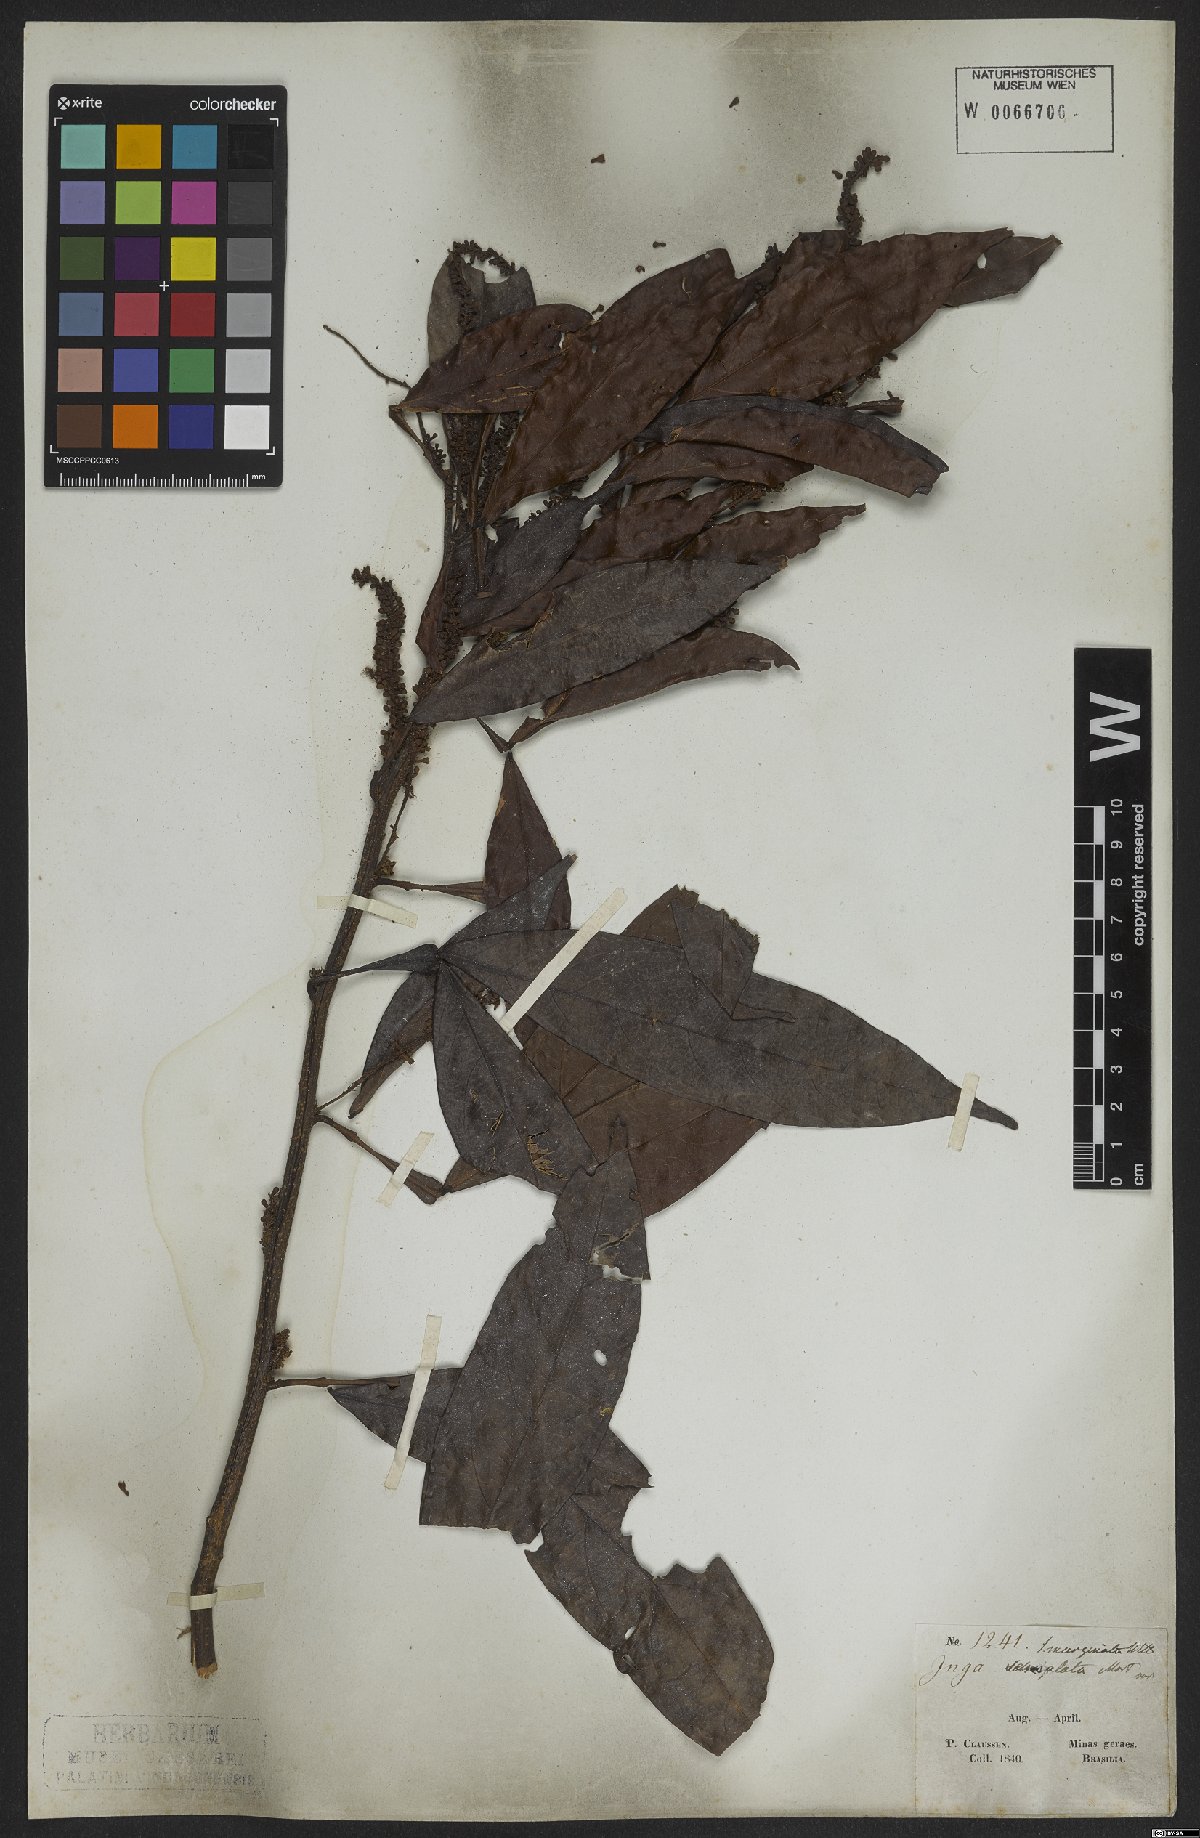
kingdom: Plantae
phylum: Tracheophyta
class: Magnoliopsida
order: Fabales
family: Fabaceae
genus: Inga
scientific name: Inga marginata
